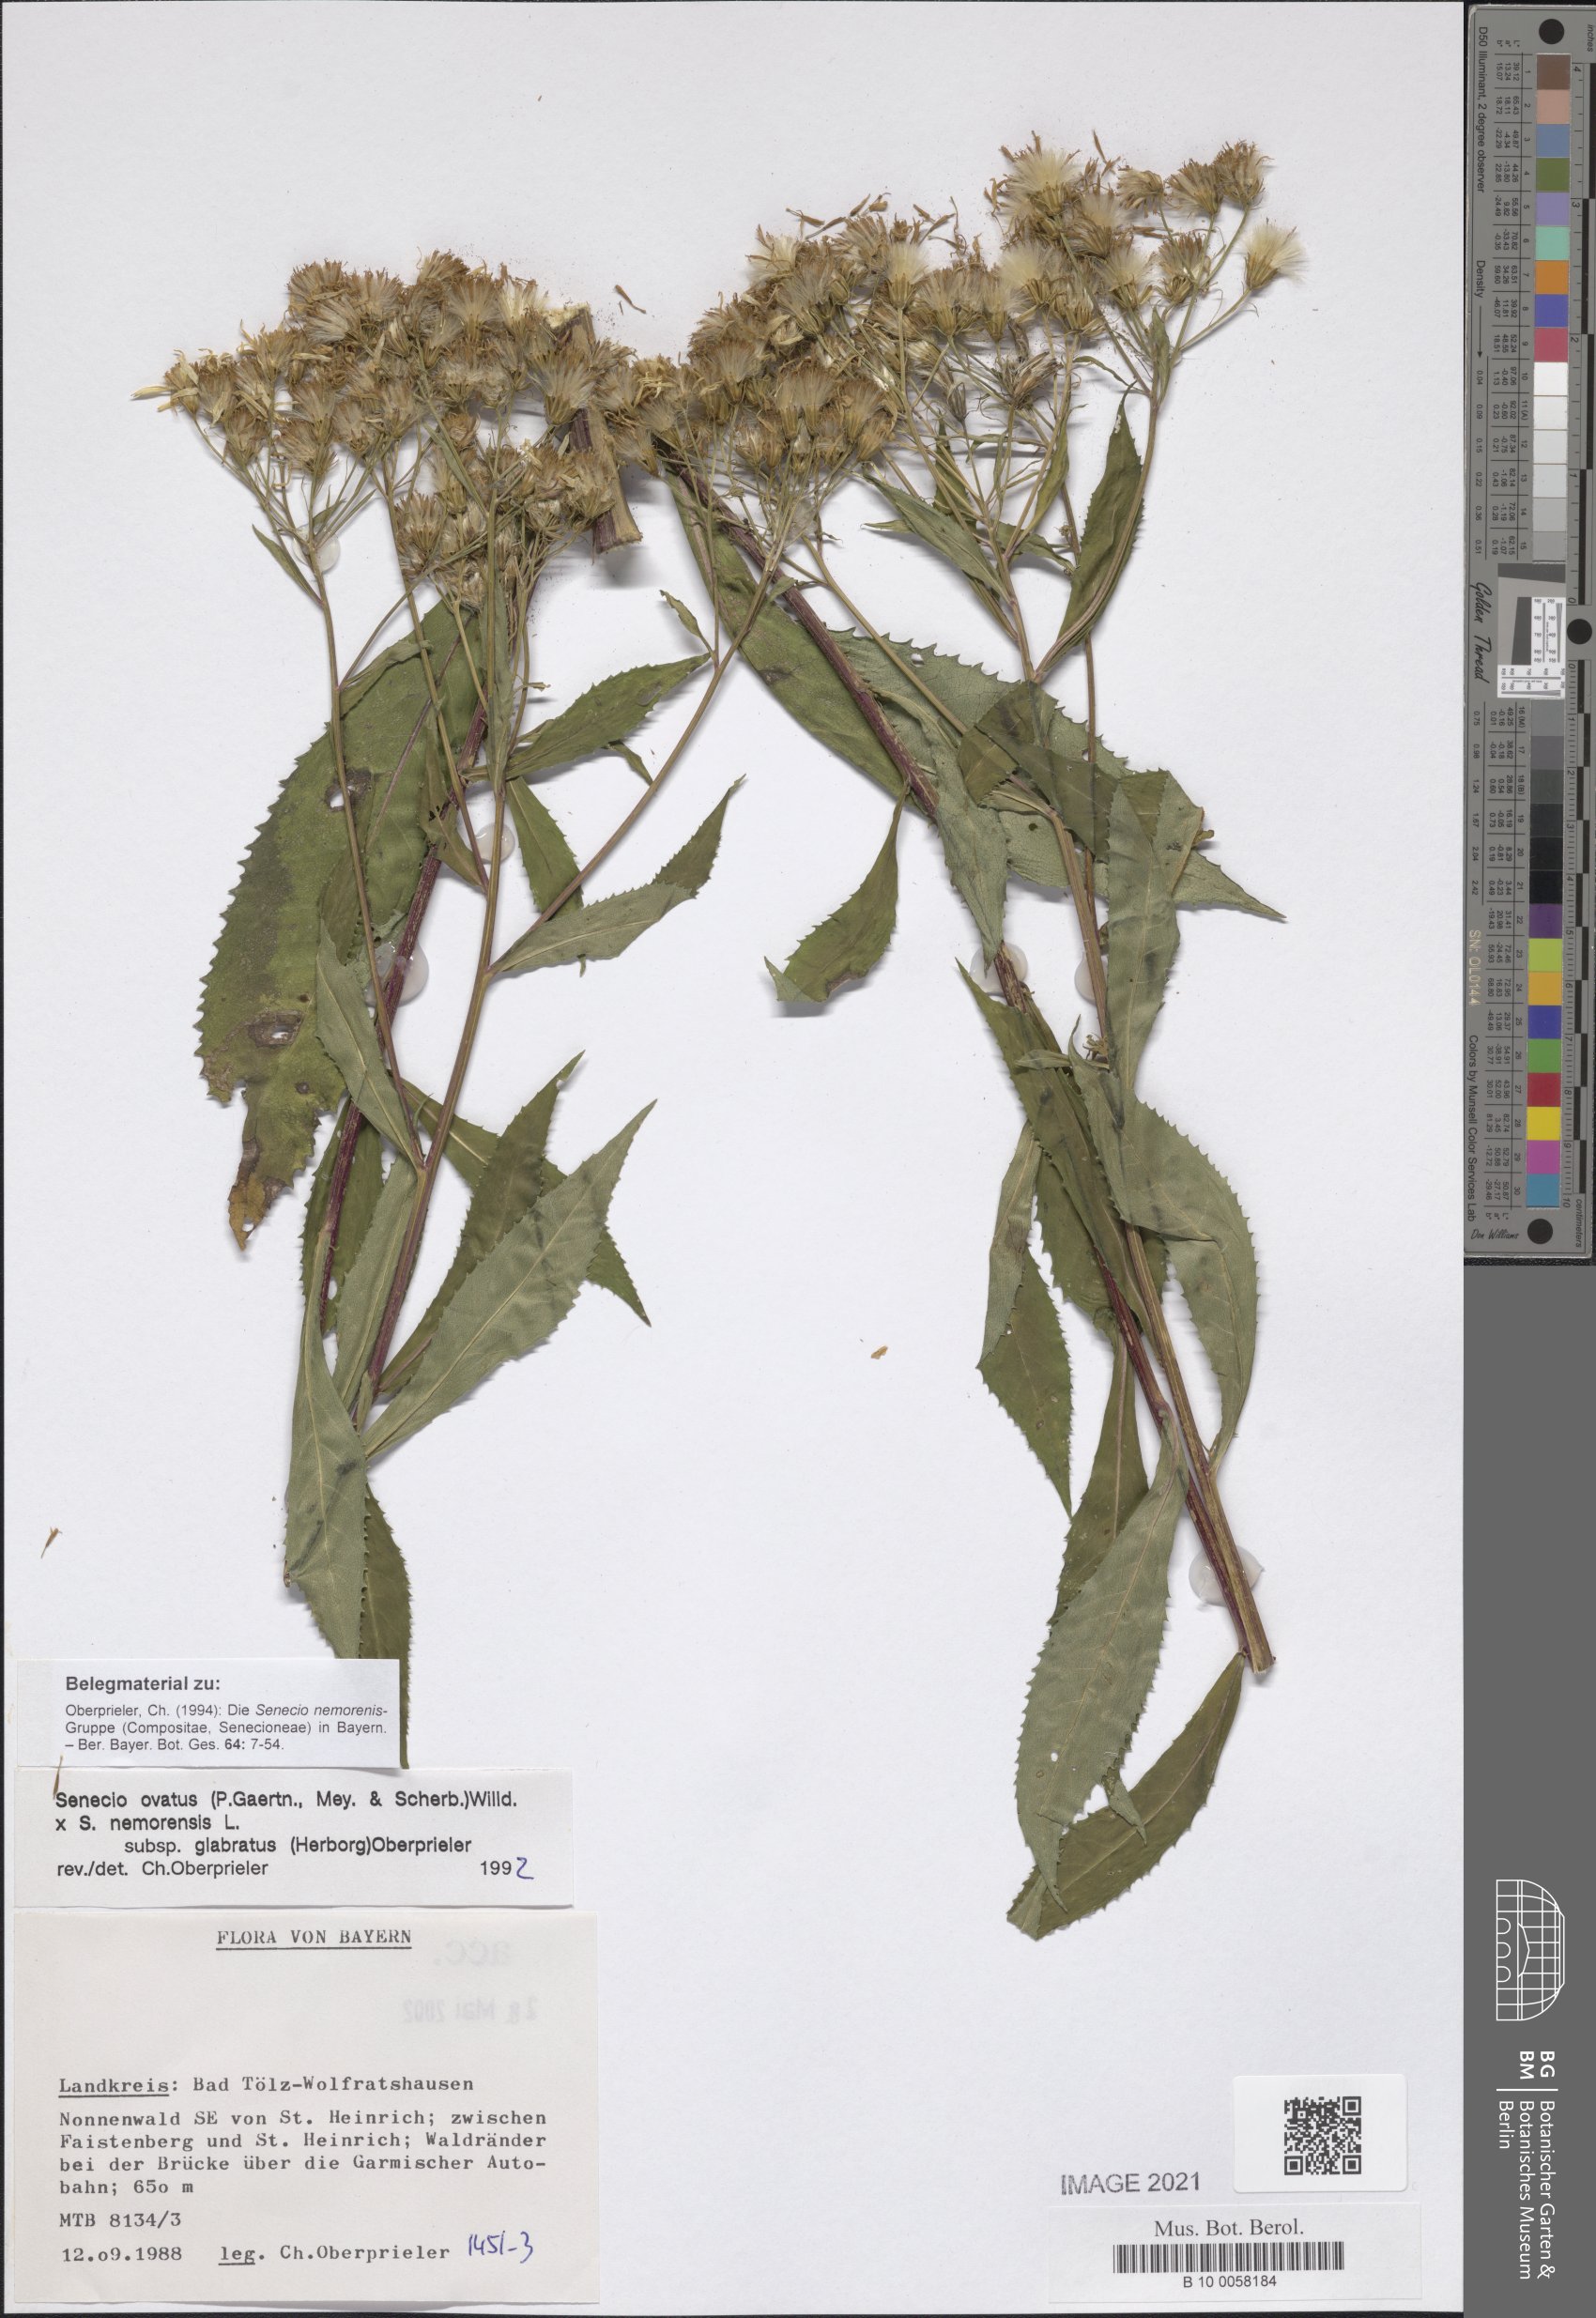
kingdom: Plantae
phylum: Tracheophyta
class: Magnoliopsida
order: Asterales
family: Asteraceae
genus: Senecio
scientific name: Senecio ovatus
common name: Wood ragwort
